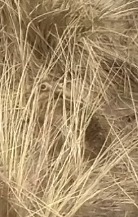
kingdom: Animalia
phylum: Chordata
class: Mammalia
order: Lagomorpha
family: Leporidae
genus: Lepus
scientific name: Lepus europaeus
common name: Hare
